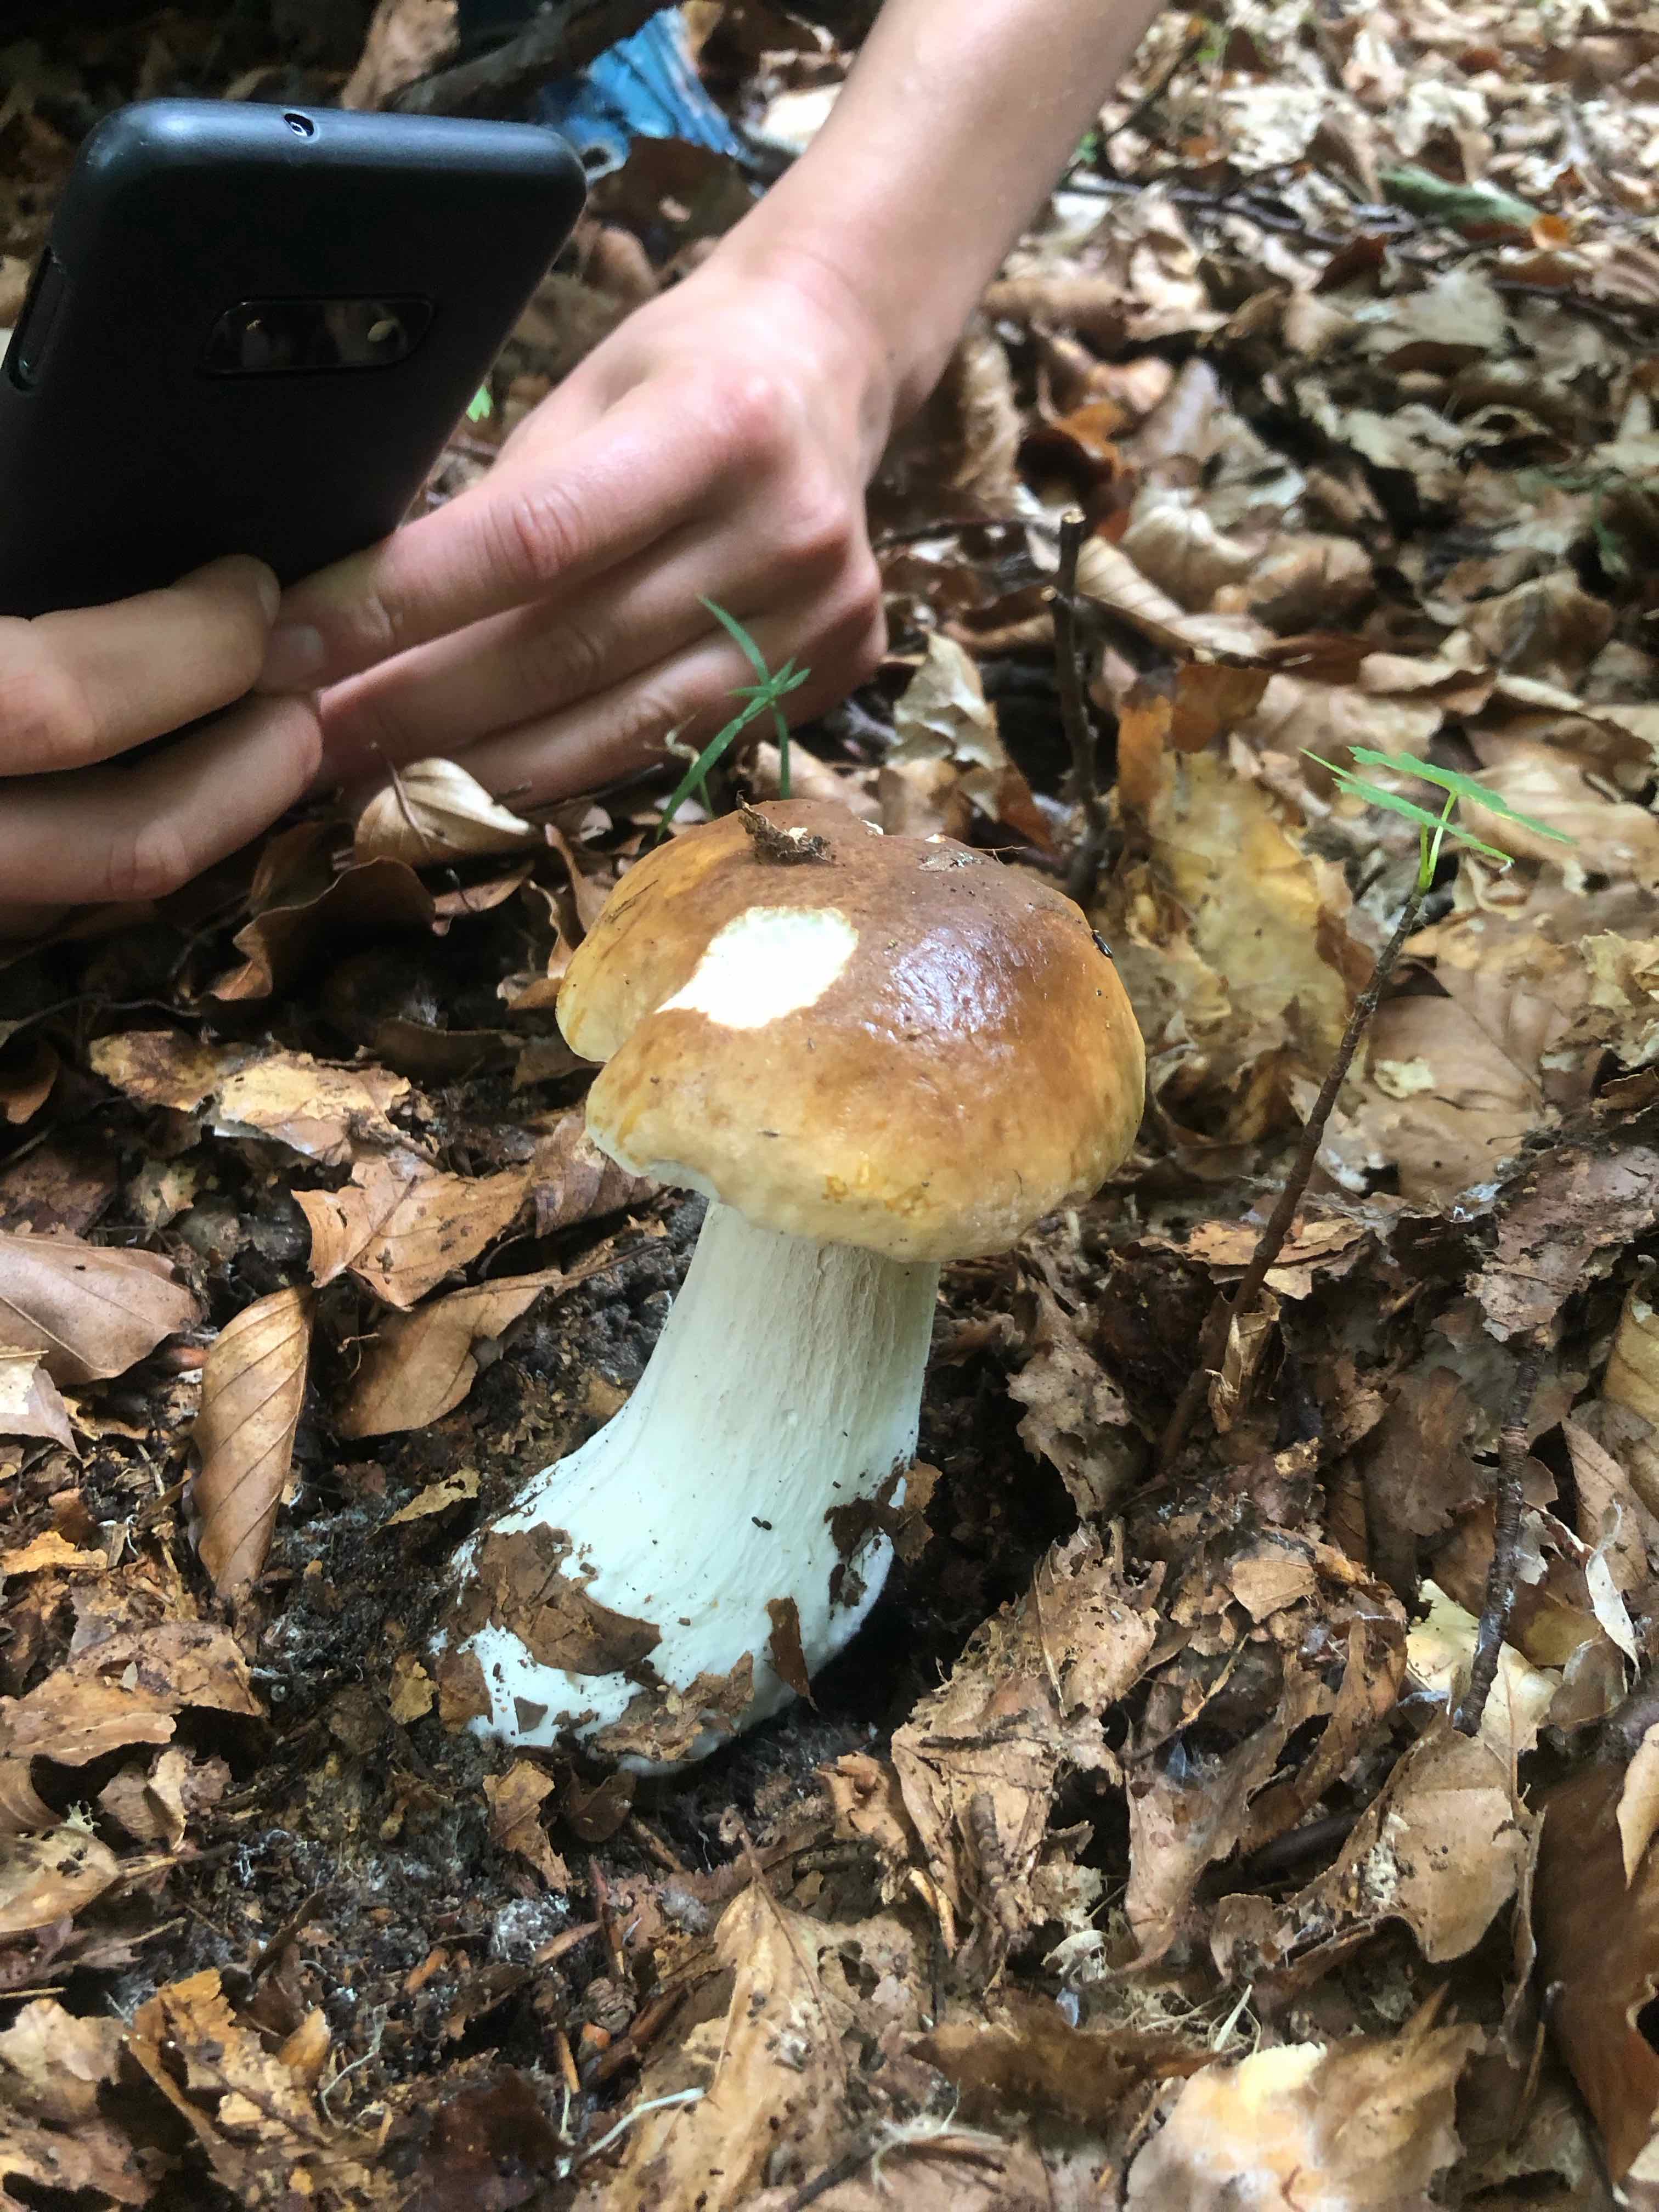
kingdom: Fungi
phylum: Basidiomycota
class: Agaricomycetes
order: Boletales
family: Boletaceae
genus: Boletus
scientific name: Boletus edulis
